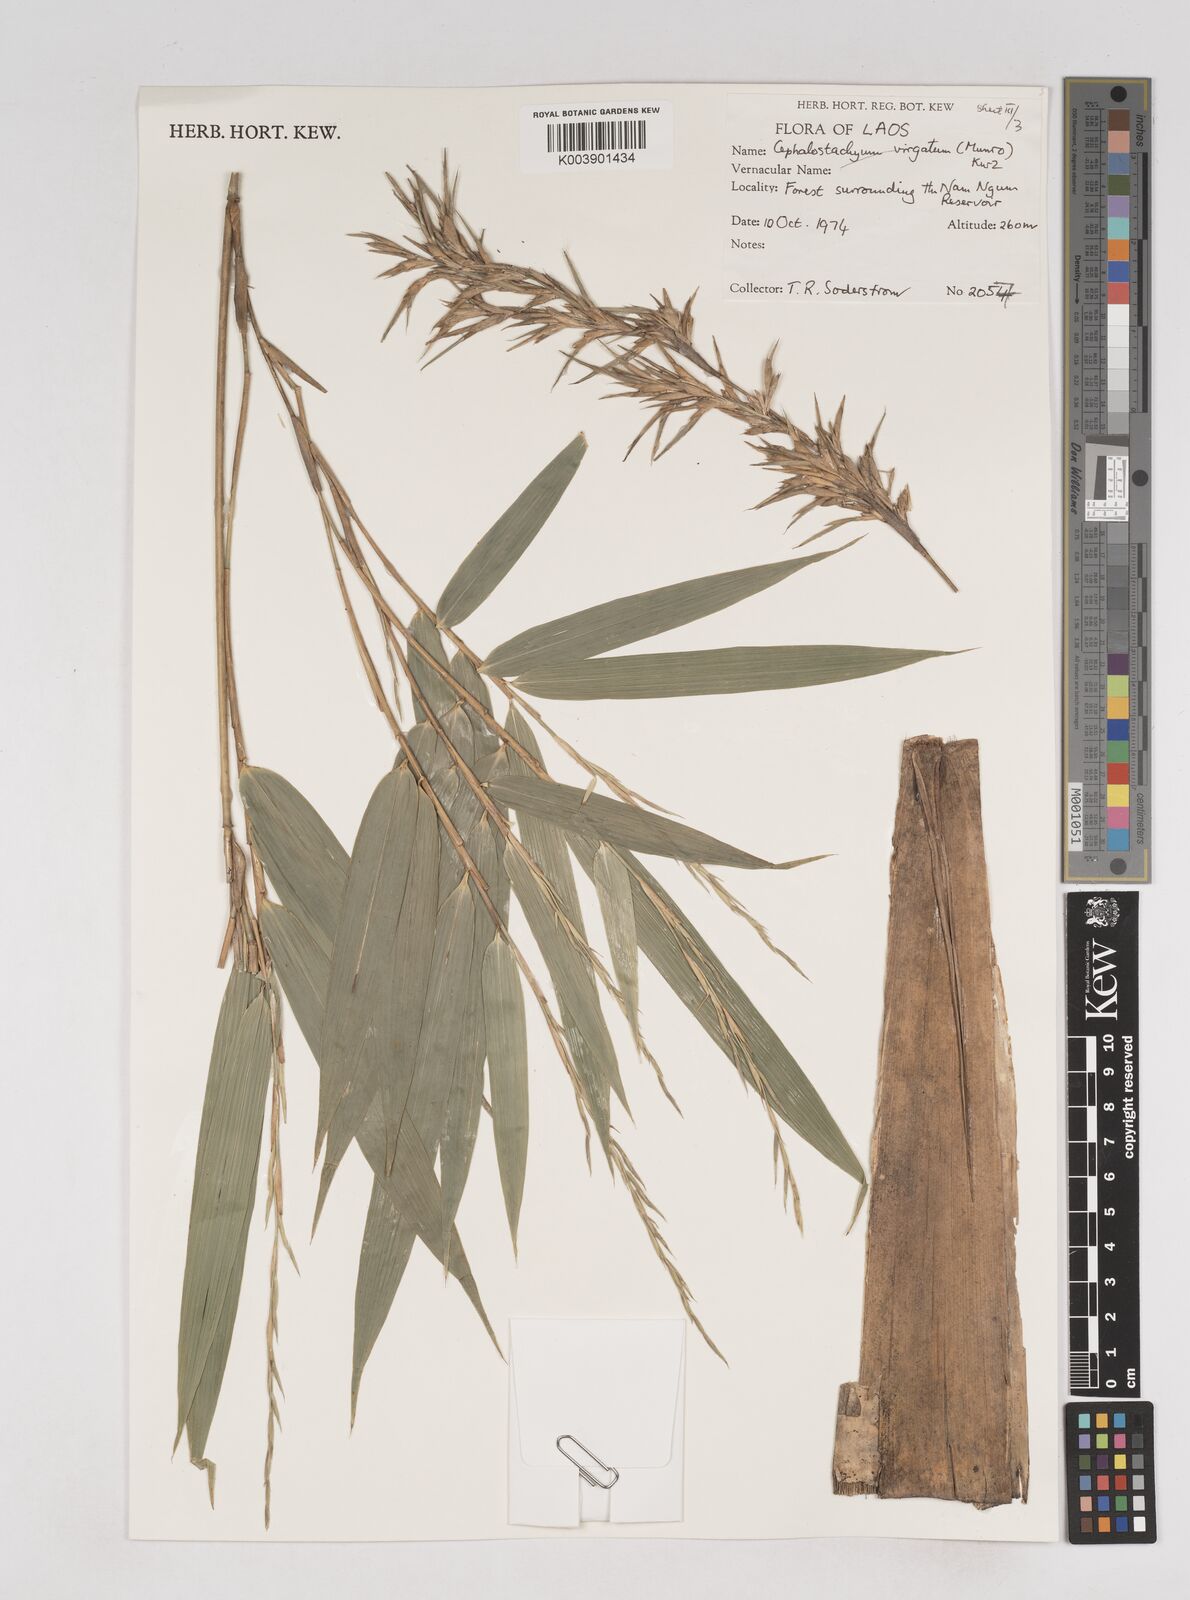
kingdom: Plantae
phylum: Tracheophyta
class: Liliopsida
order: Poales
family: Poaceae
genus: Schizostachyum
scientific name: Schizostachyum
